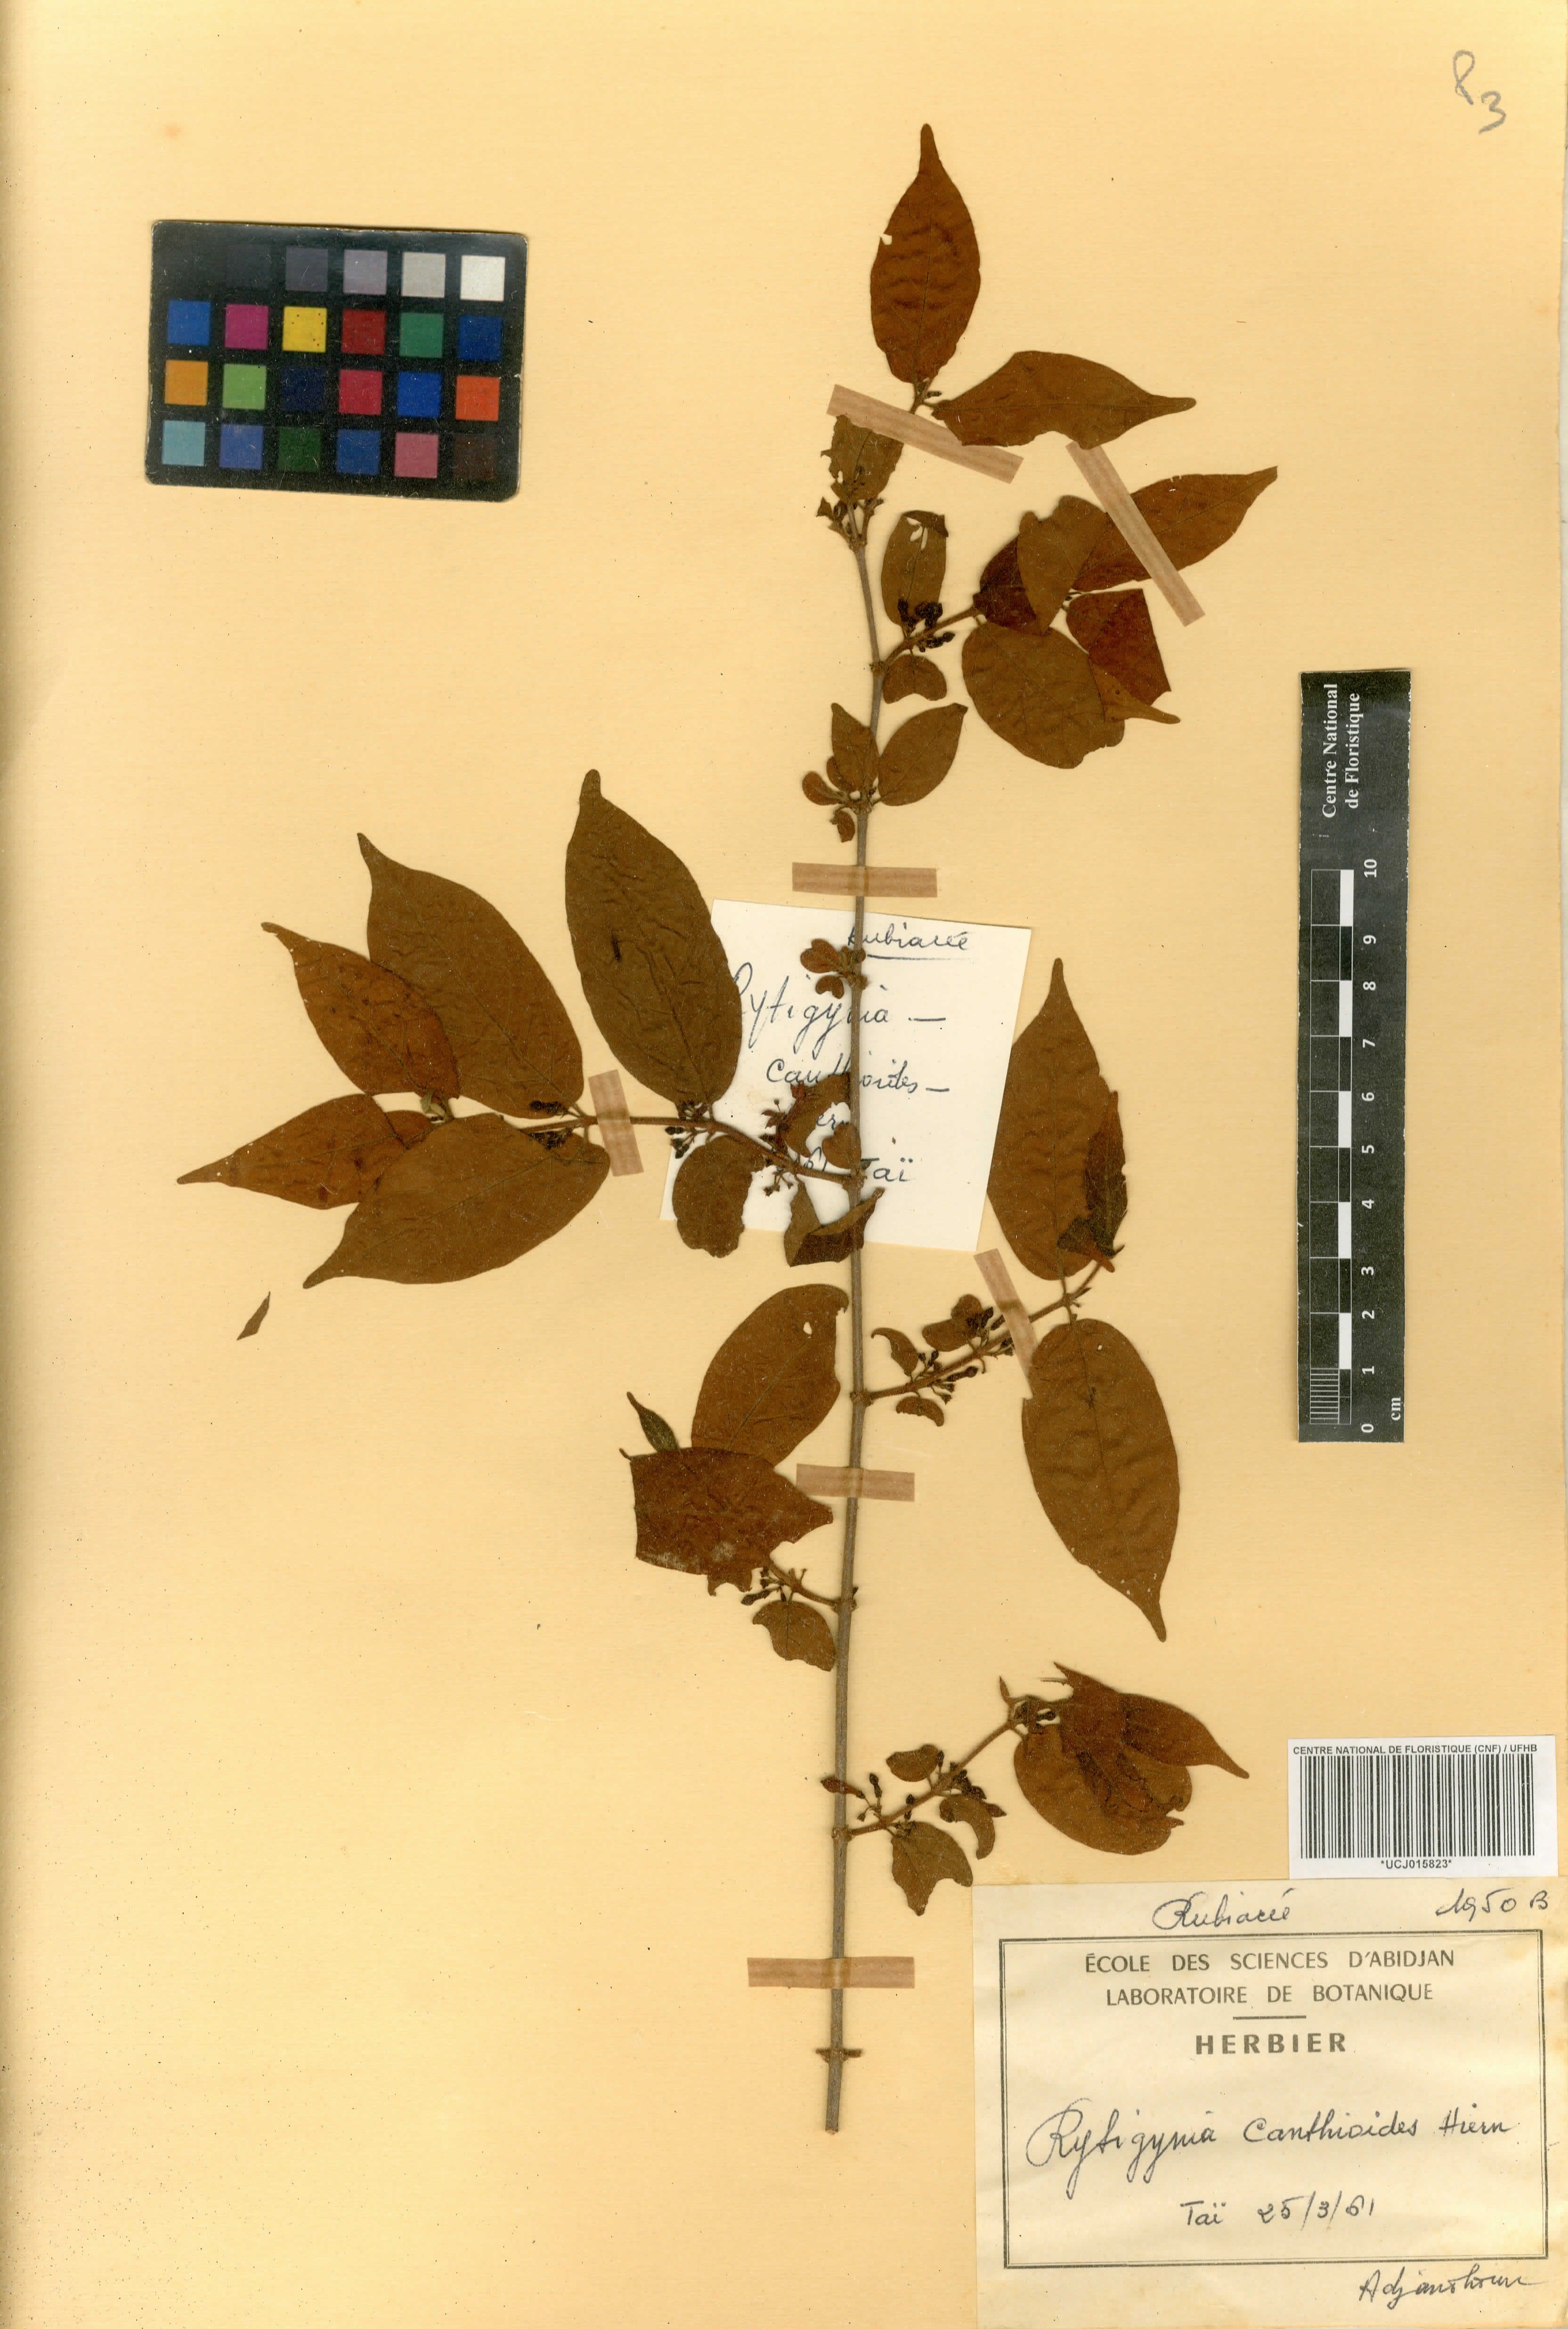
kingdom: Plantae
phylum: Tracheophyta
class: Magnoliopsida
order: Gentianales
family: Rubiaceae
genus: Rytigynia
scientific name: Rytigynia canthioides
